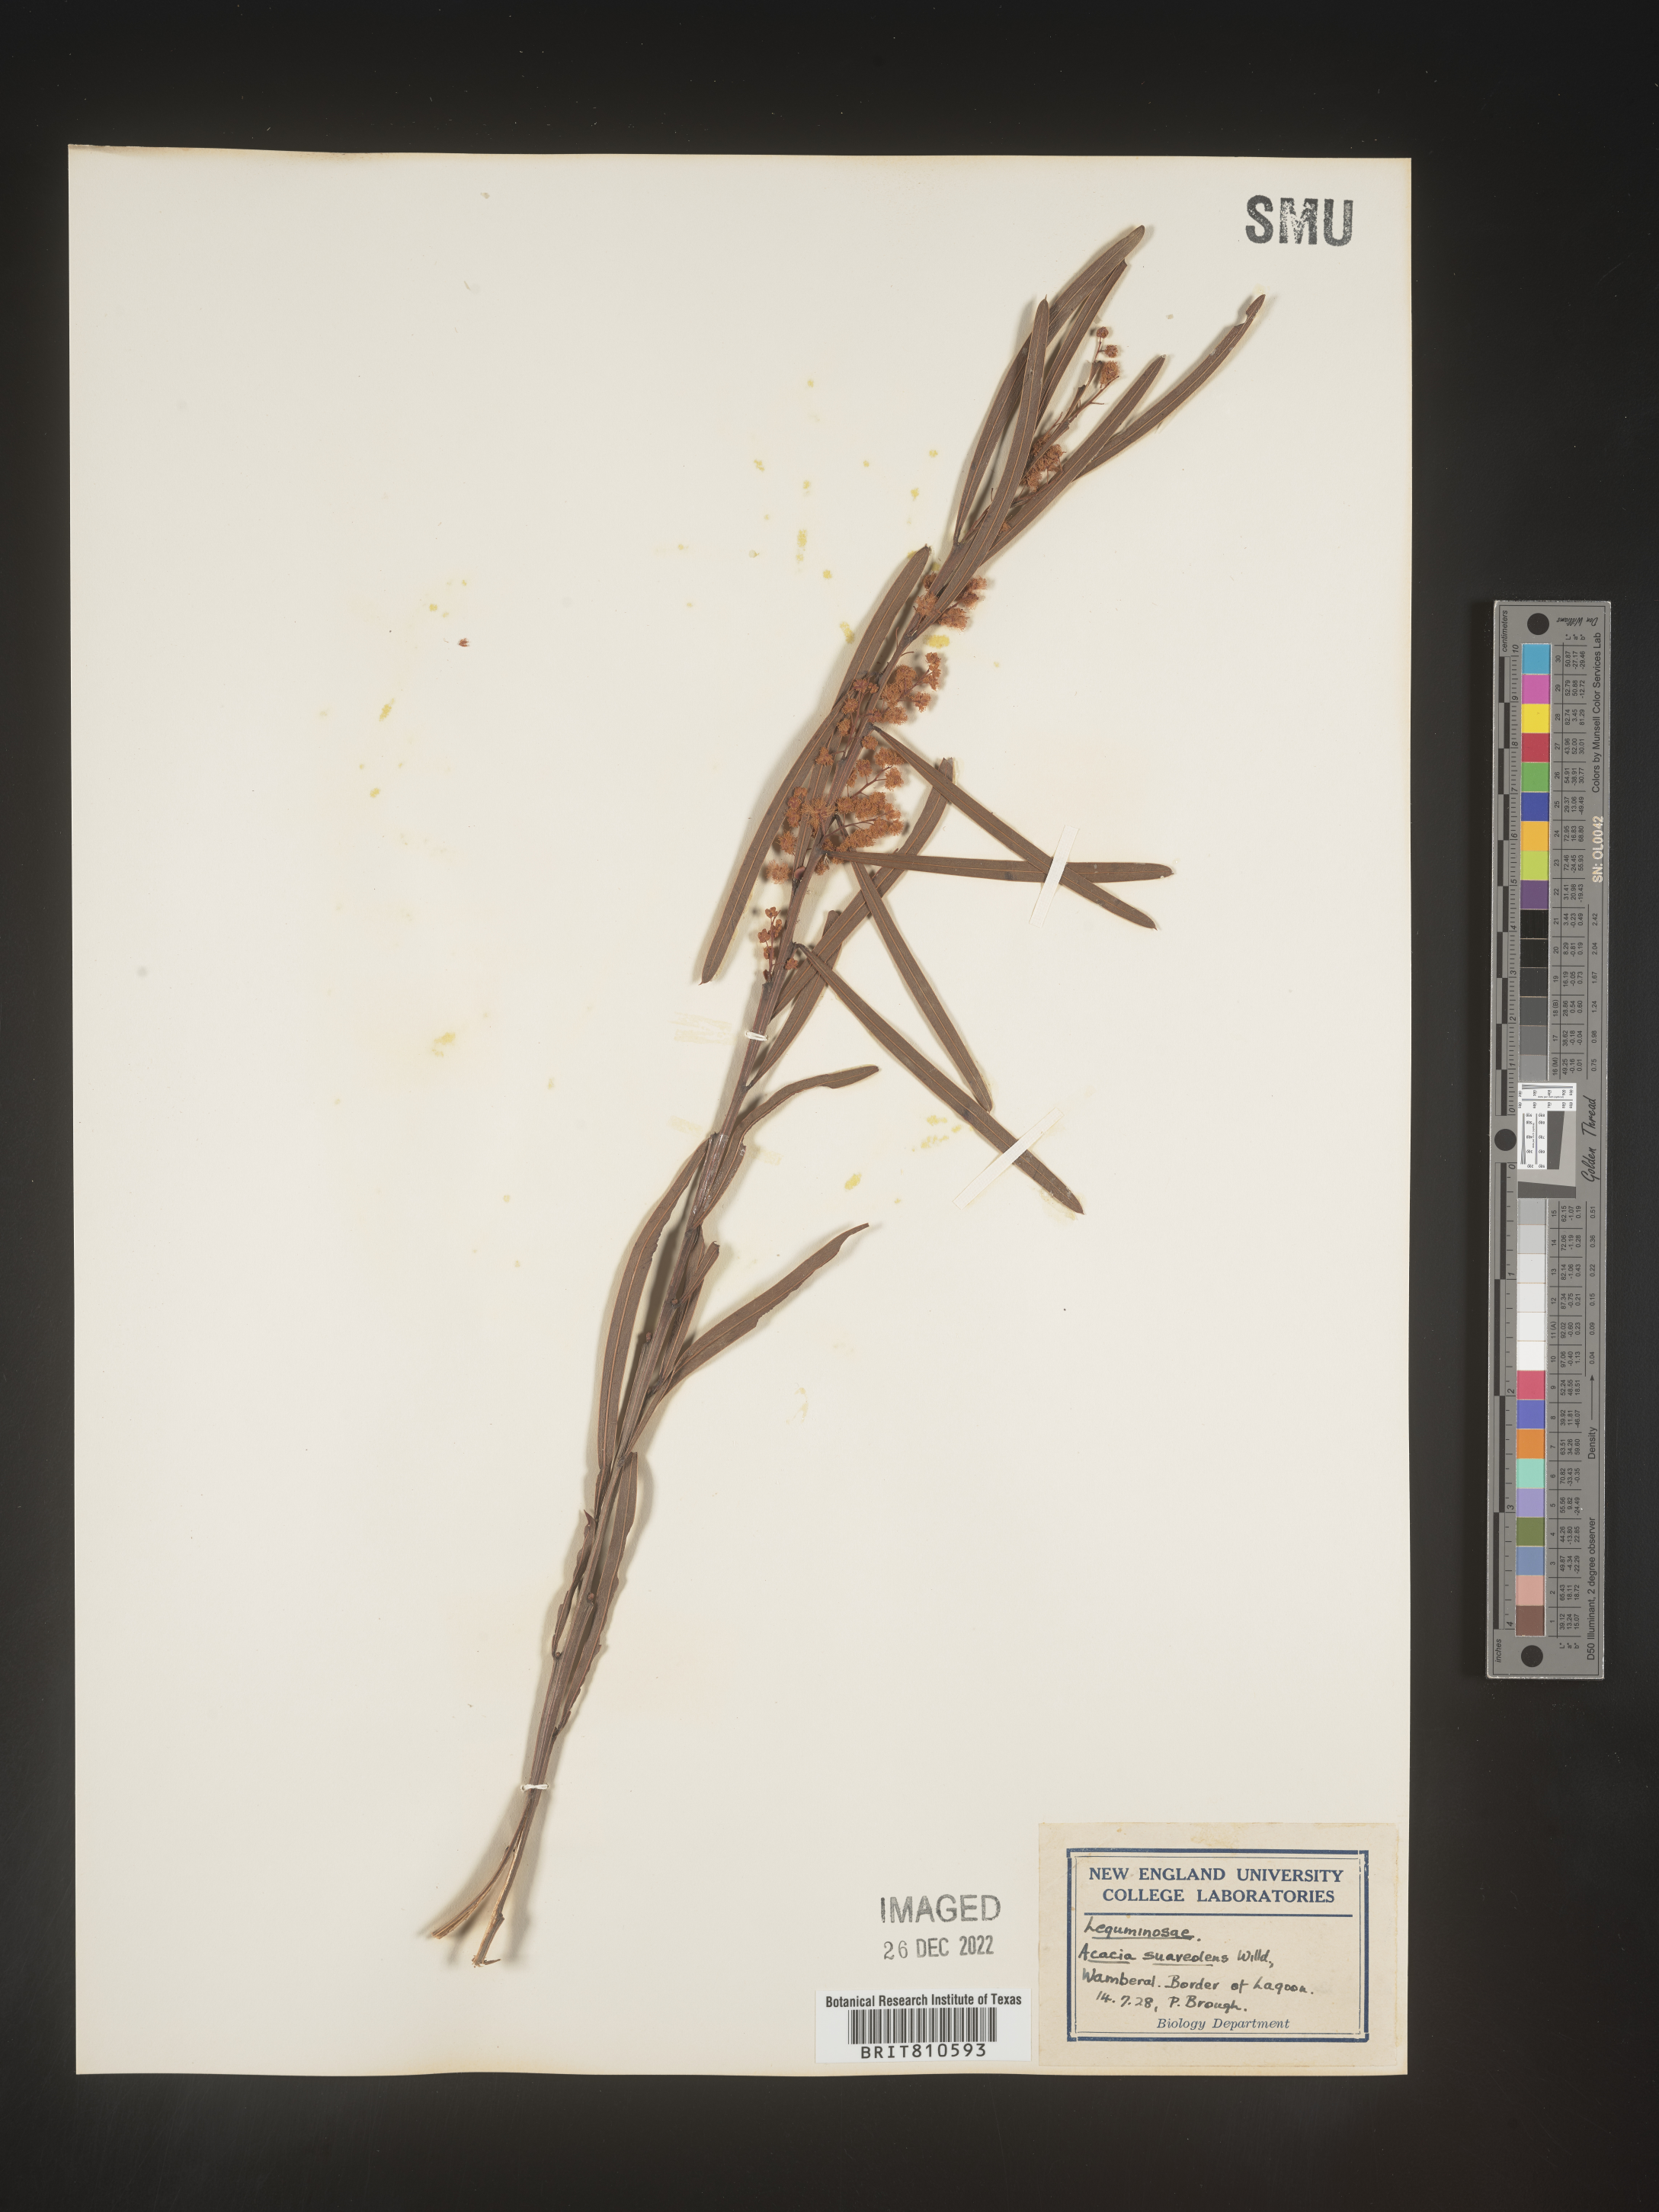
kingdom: Plantae
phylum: Tracheophyta
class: Magnoliopsida
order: Fabales
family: Fabaceae
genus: Acacia
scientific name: Acacia
